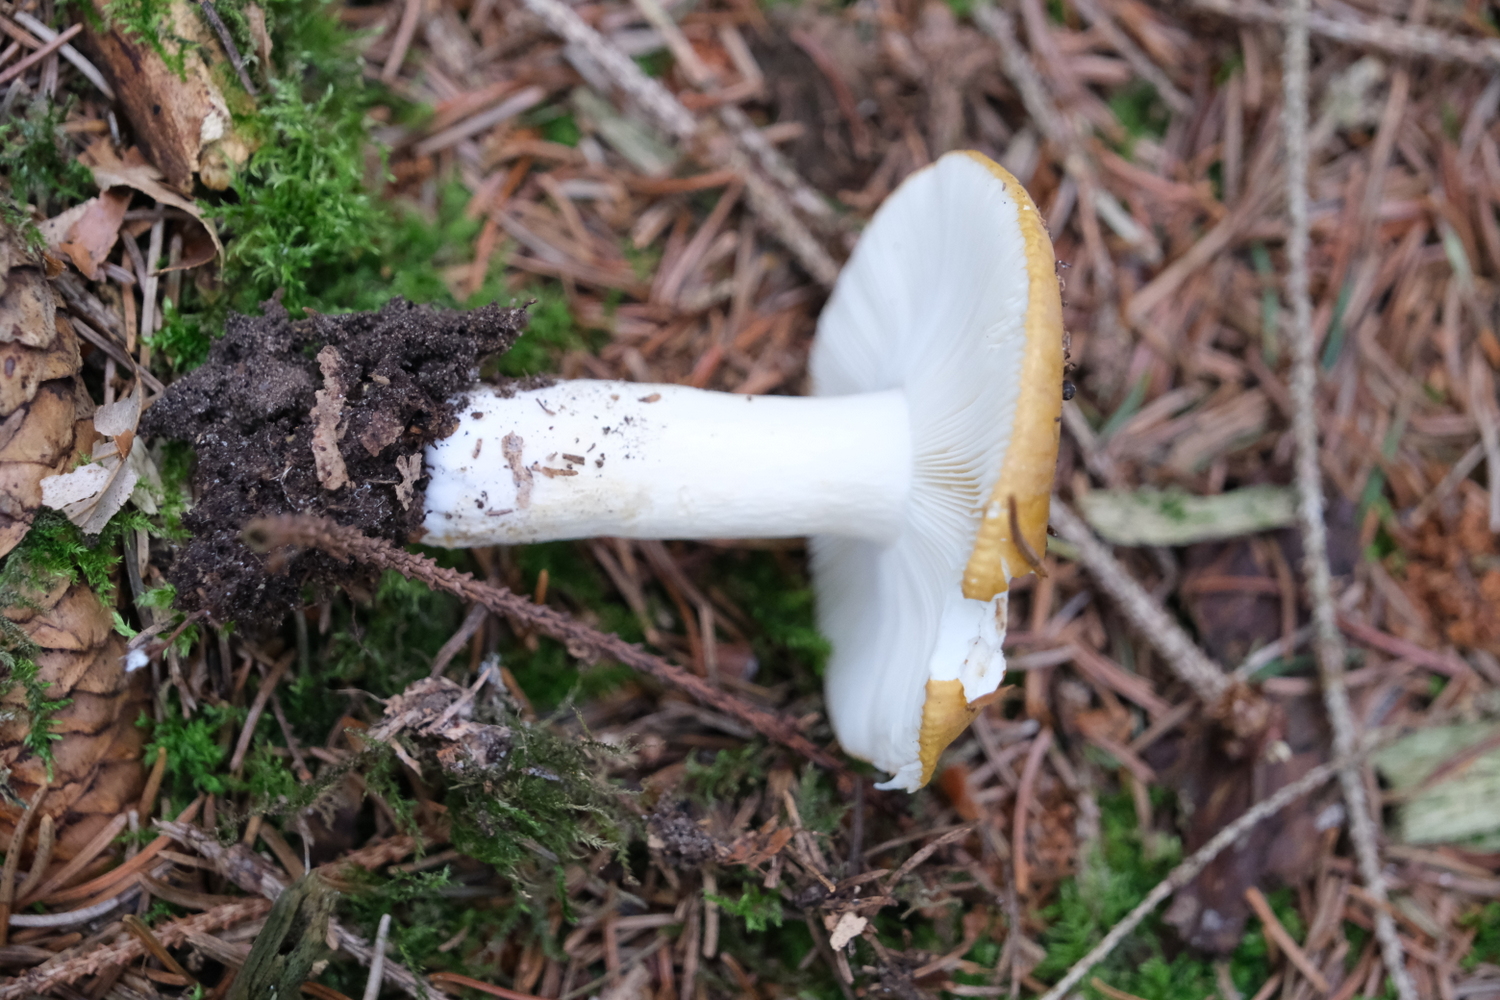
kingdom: Fungi
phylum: Basidiomycota
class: Agaricomycetes
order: Russulales
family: Russulaceae
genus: Russula
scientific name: Russula ochroleuca
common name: okkergul skørhat
